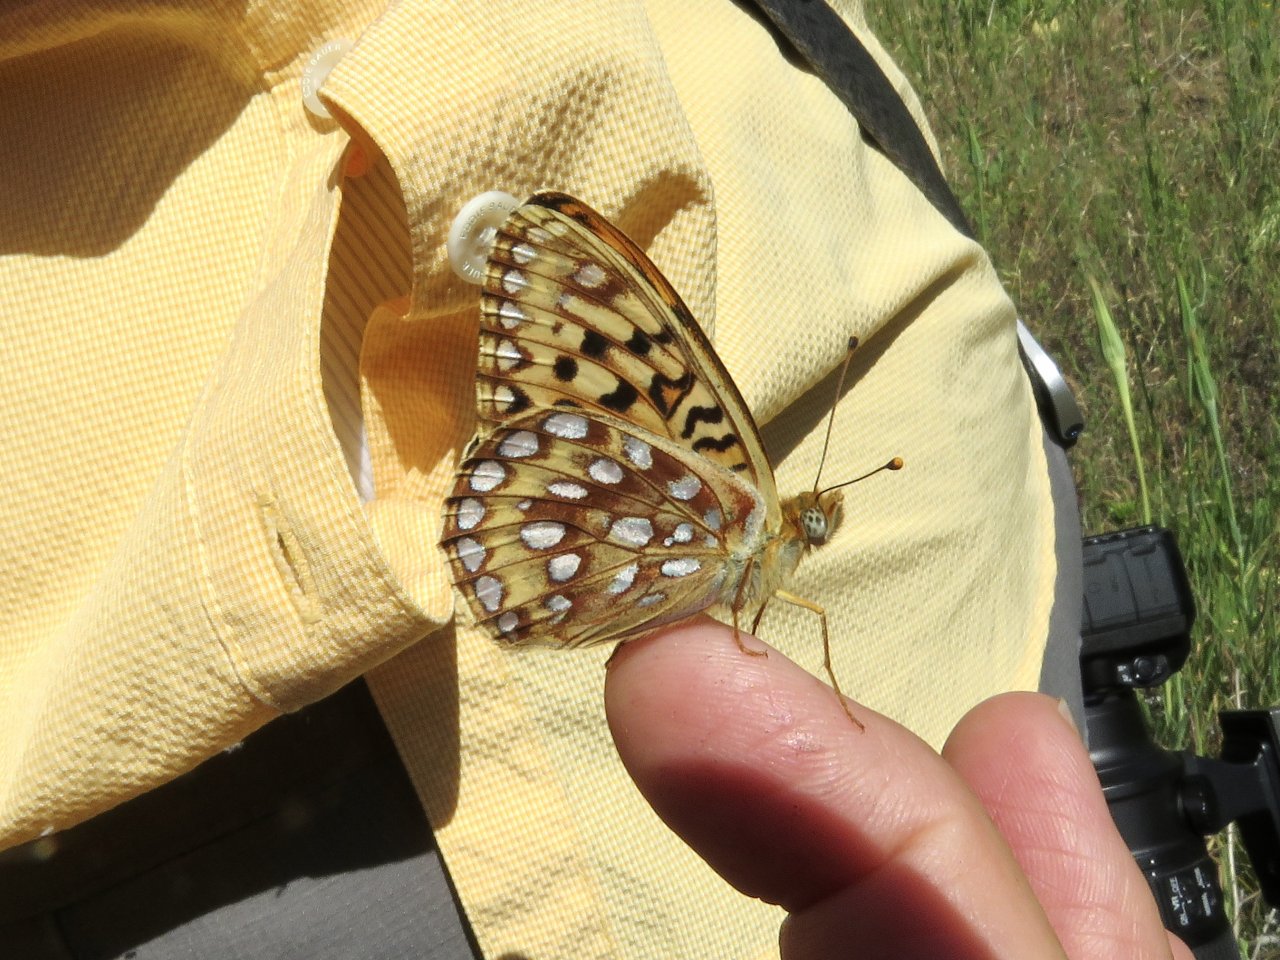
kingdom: Animalia
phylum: Arthropoda
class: Insecta
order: Lepidoptera
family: Nymphalidae
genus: Speyeria
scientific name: Speyeria zerene
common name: Zerene Fritillary
